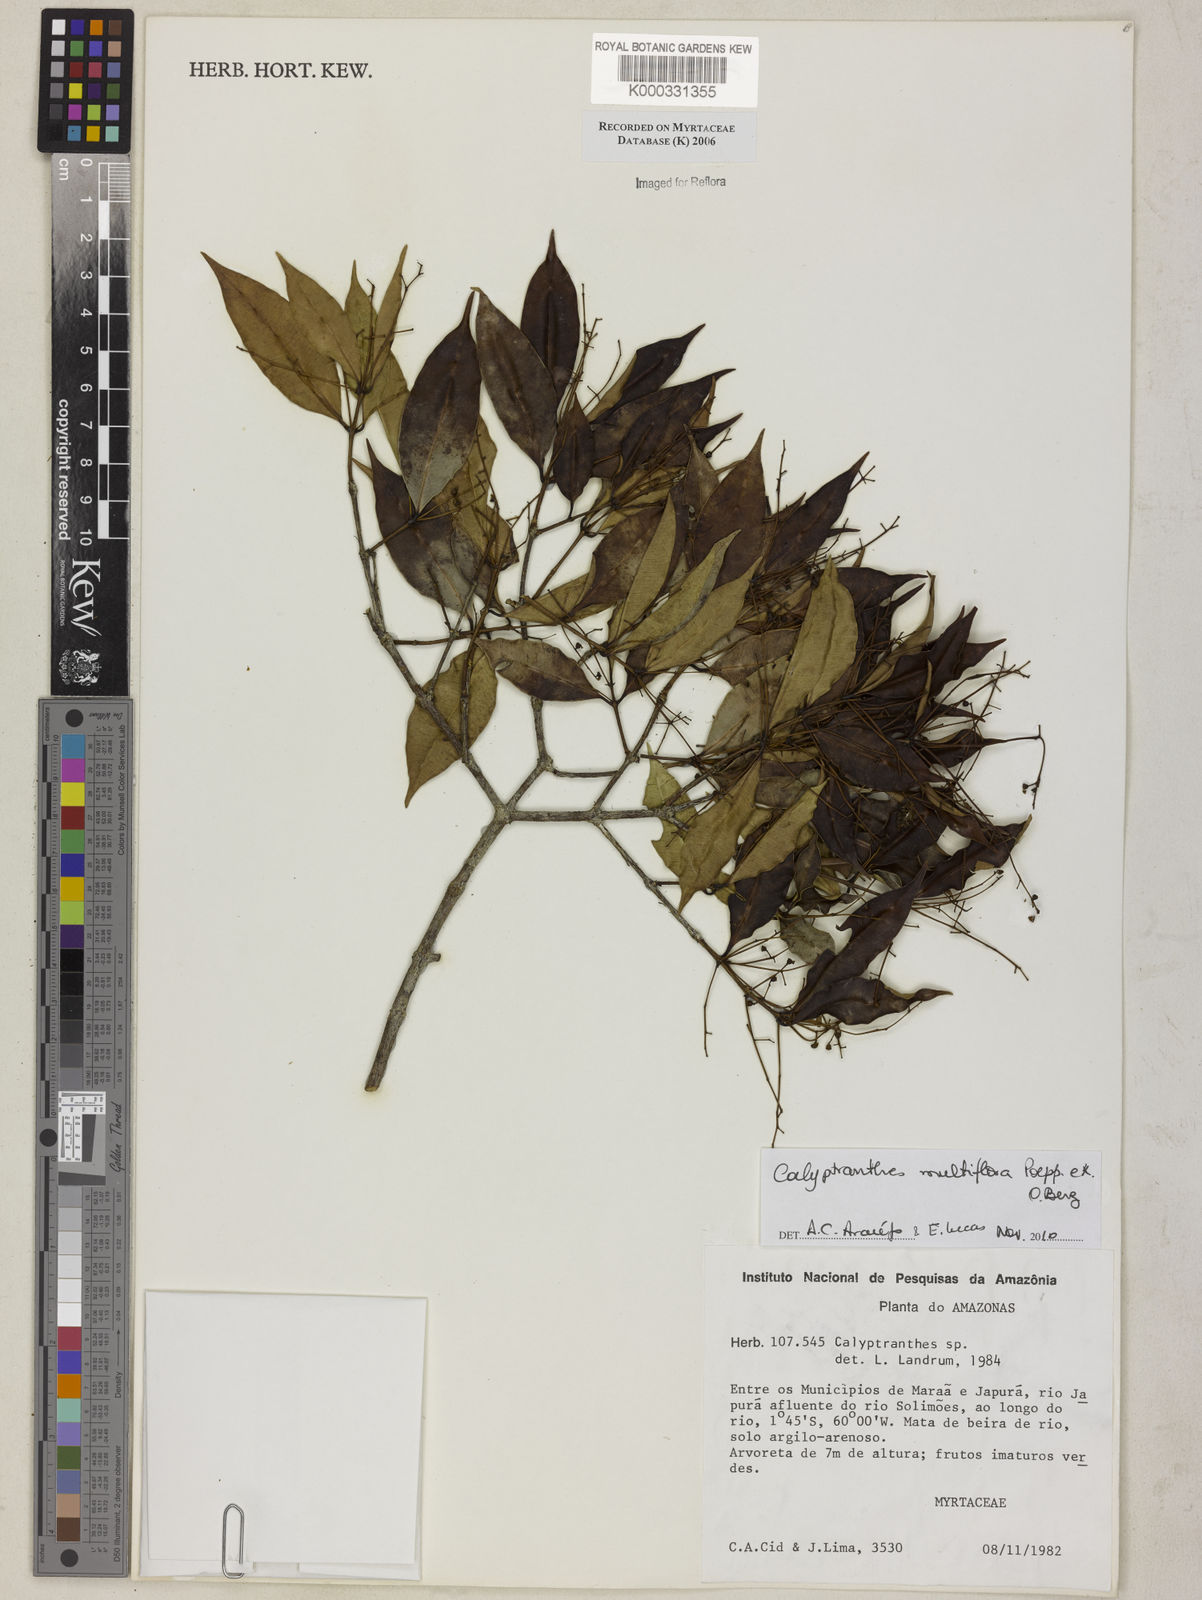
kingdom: Plantae
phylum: Tracheophyta
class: Magnoliopsida
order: Myrtales
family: Myrtaceae
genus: Calyptranthes
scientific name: Calyptranthes
